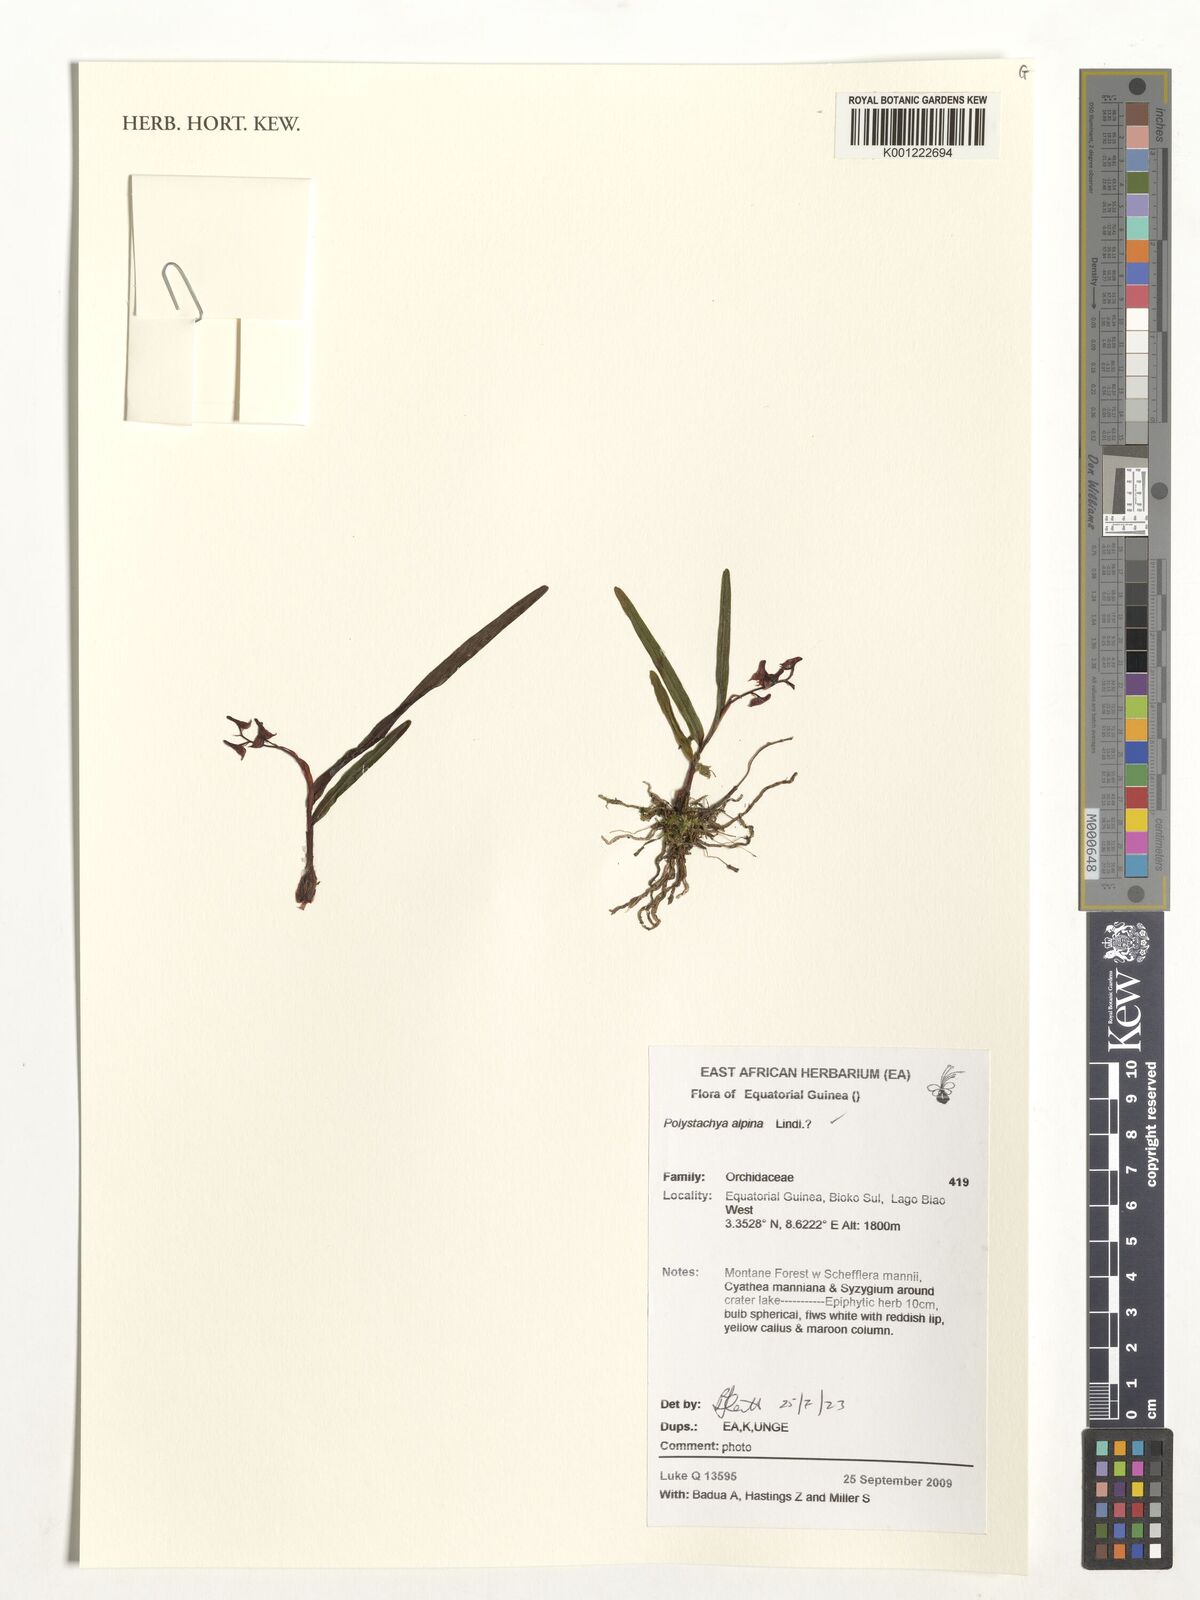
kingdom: Plantae
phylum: Tracheophyta
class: Liliopsida
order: Asparagales
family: Orchidaceae
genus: Polystachya
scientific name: Polystachya alpina
